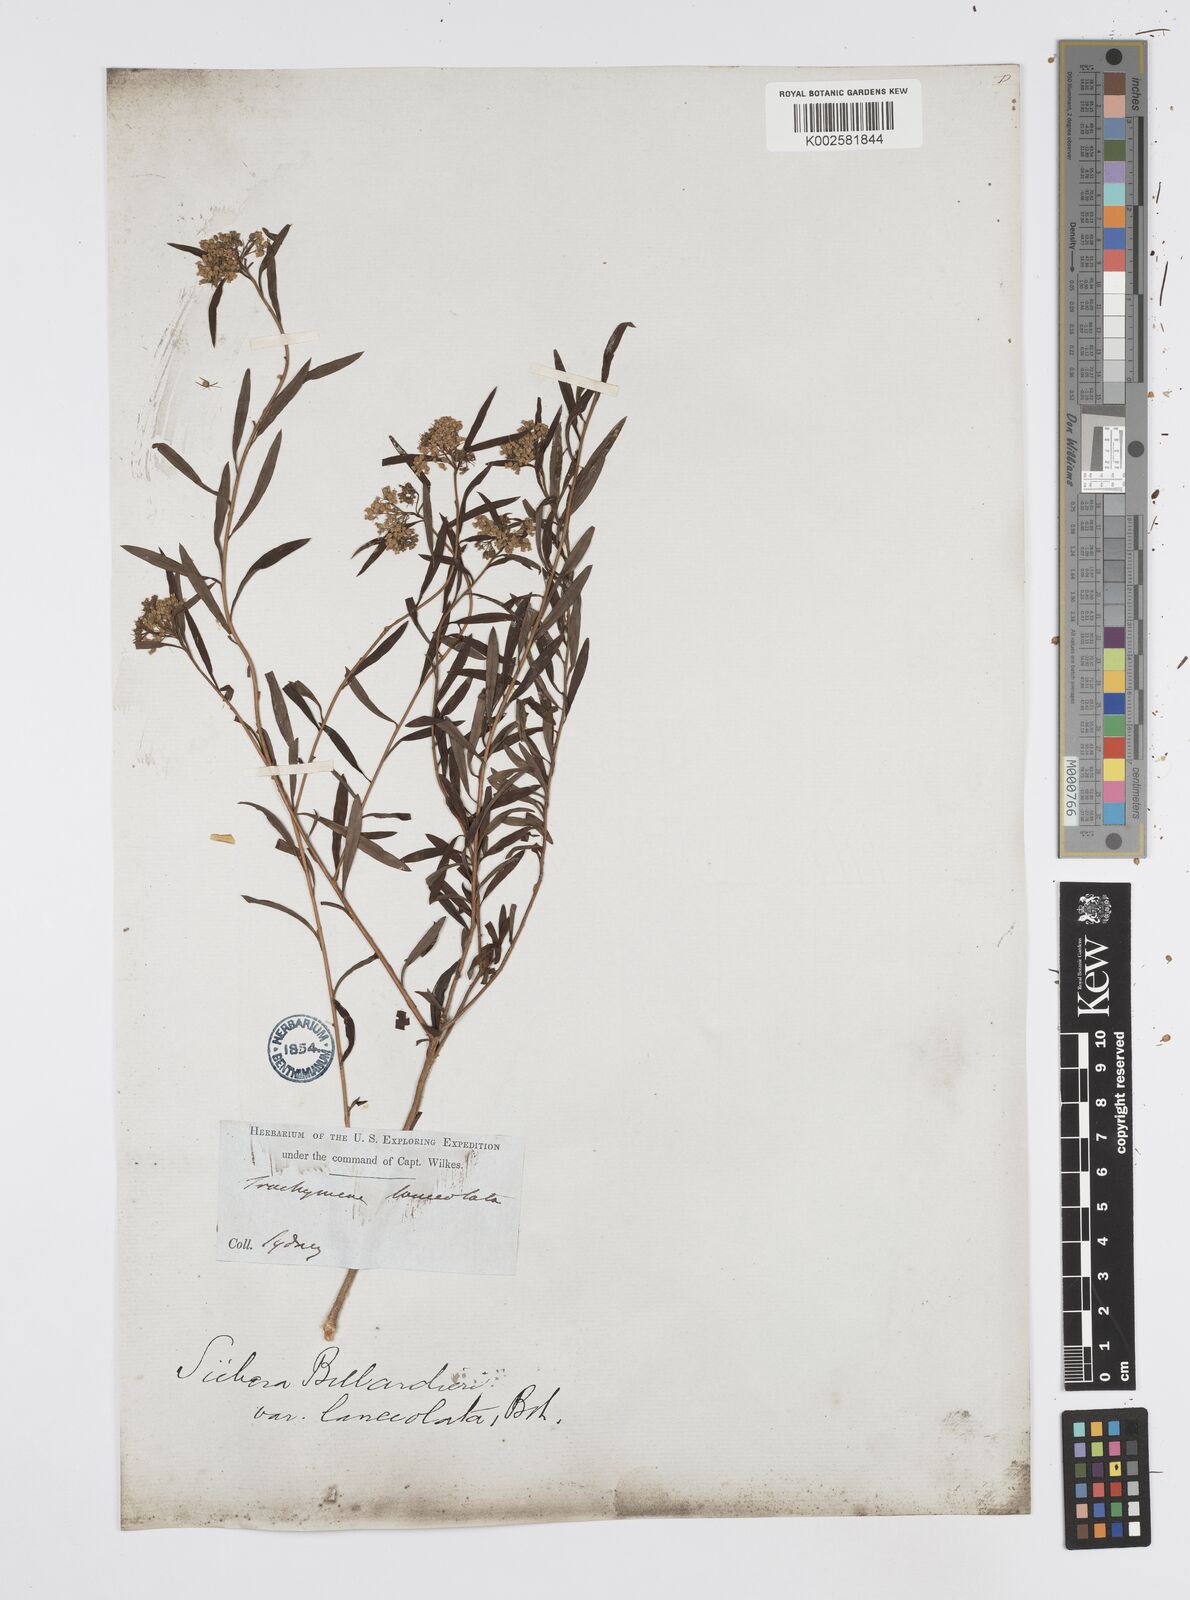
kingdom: Plantae
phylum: Tracheophyta
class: Magnoliopsida
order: Apiales
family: Apiaceae
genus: Platysace
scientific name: Platysace lanceolata
